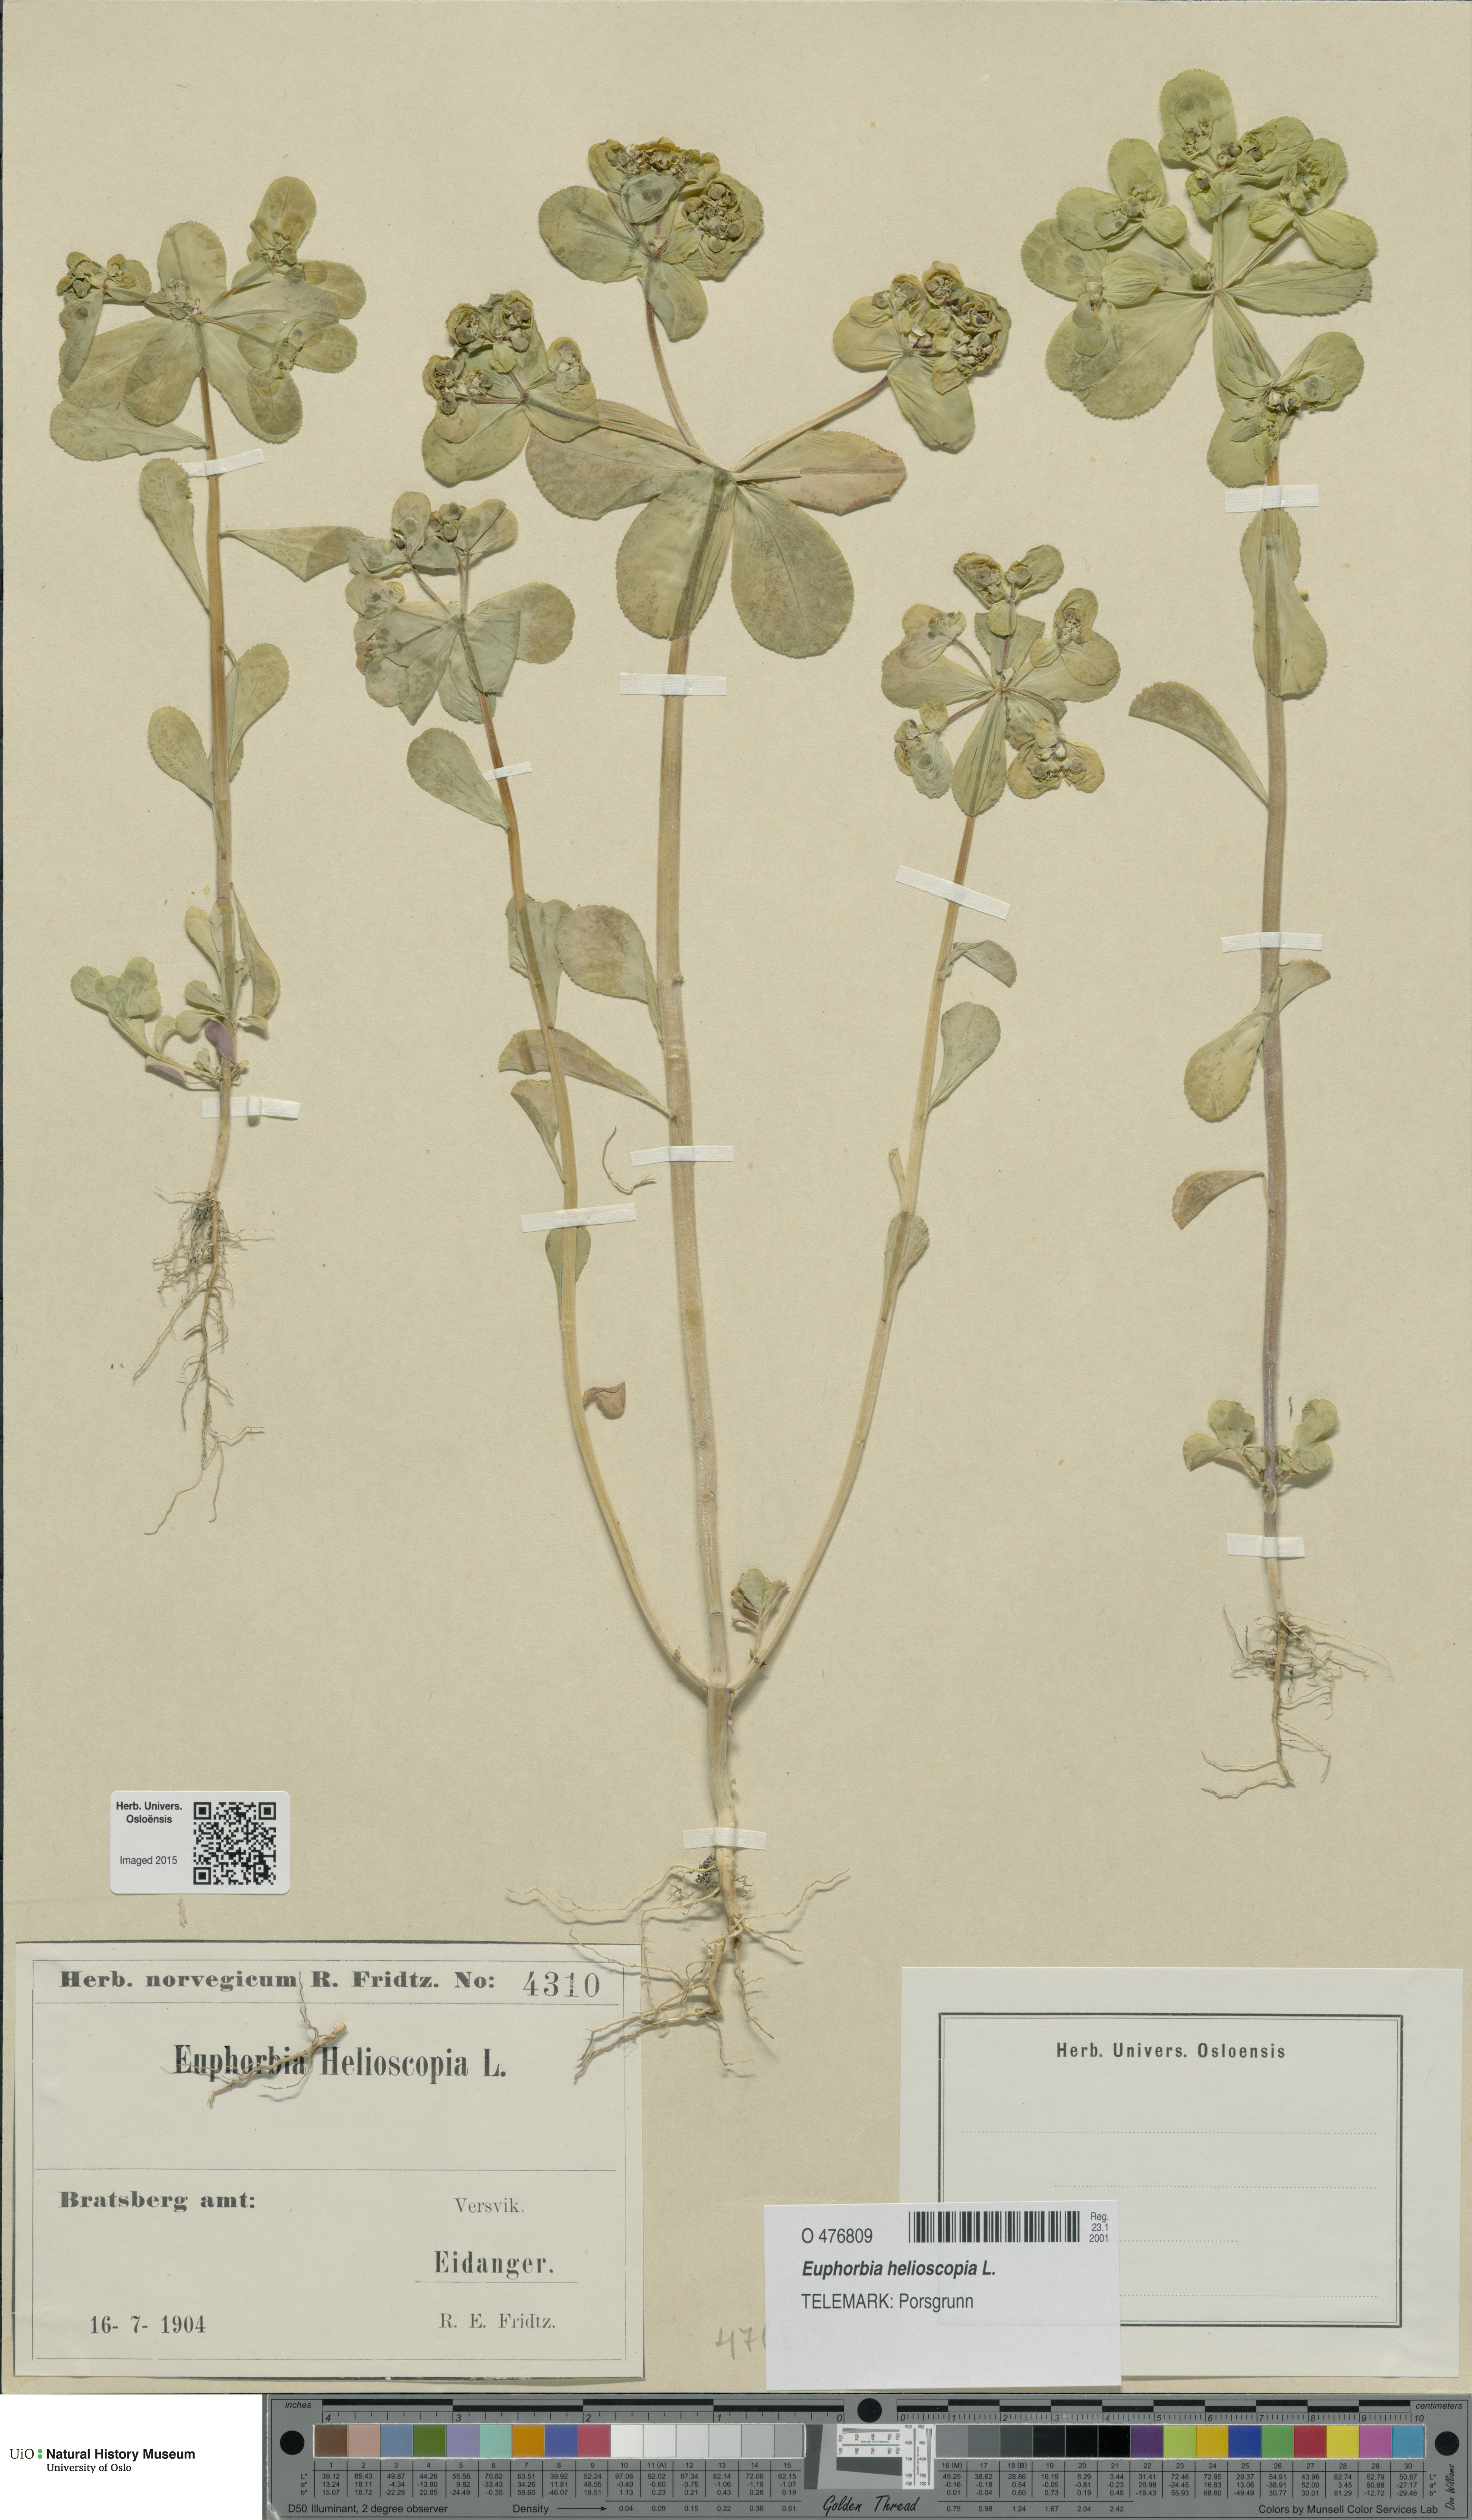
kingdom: Plantae
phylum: Tracheophyta
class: Magnoliopsida
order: Malpighiales
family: Euphorbiaceae
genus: Euphorbia
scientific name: Euphorbia helioscopia
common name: Sun spurge
